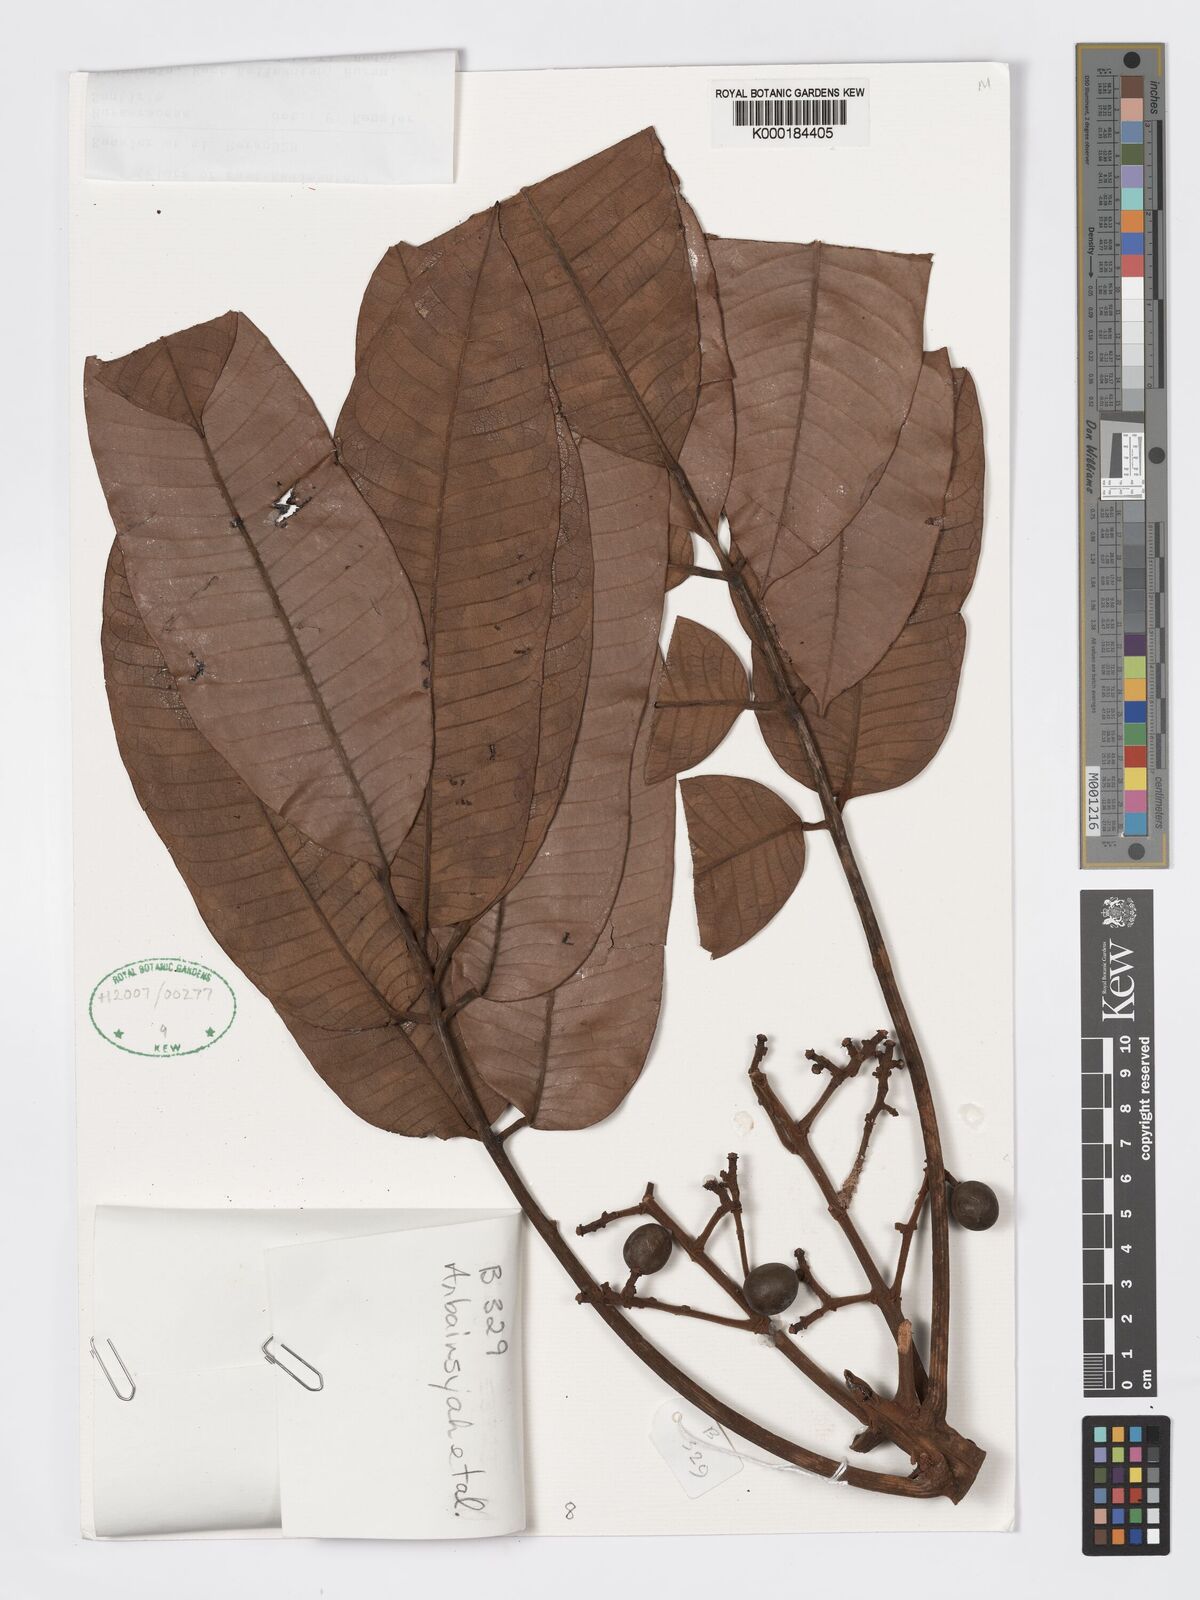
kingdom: Plantae
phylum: Tracheophyta
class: Magnoliopsida
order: Sapindales
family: Burseraceae
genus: Santiria
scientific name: Santiria tomentosa
